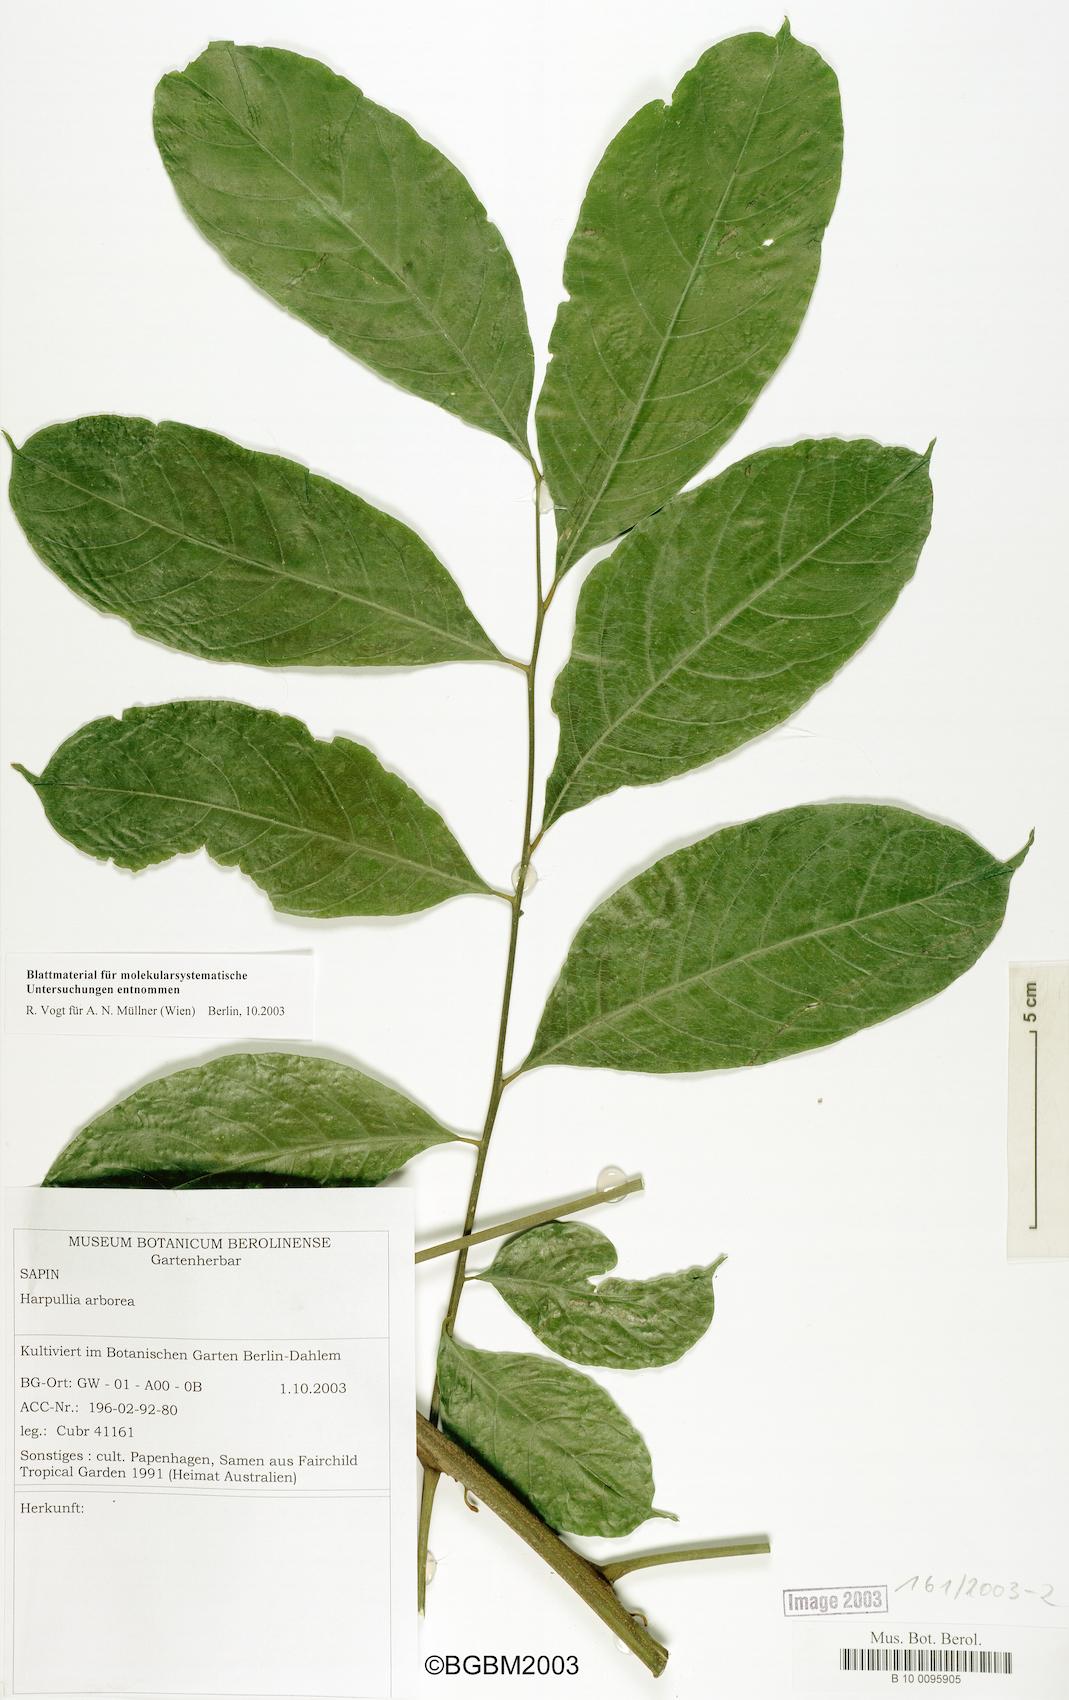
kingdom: Plantae
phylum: Tracheophyta
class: Magnoliopsida
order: Sapindales
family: Sapindaceae
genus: Harpullia
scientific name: Harpullia arborea
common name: Tulip-wood tree
